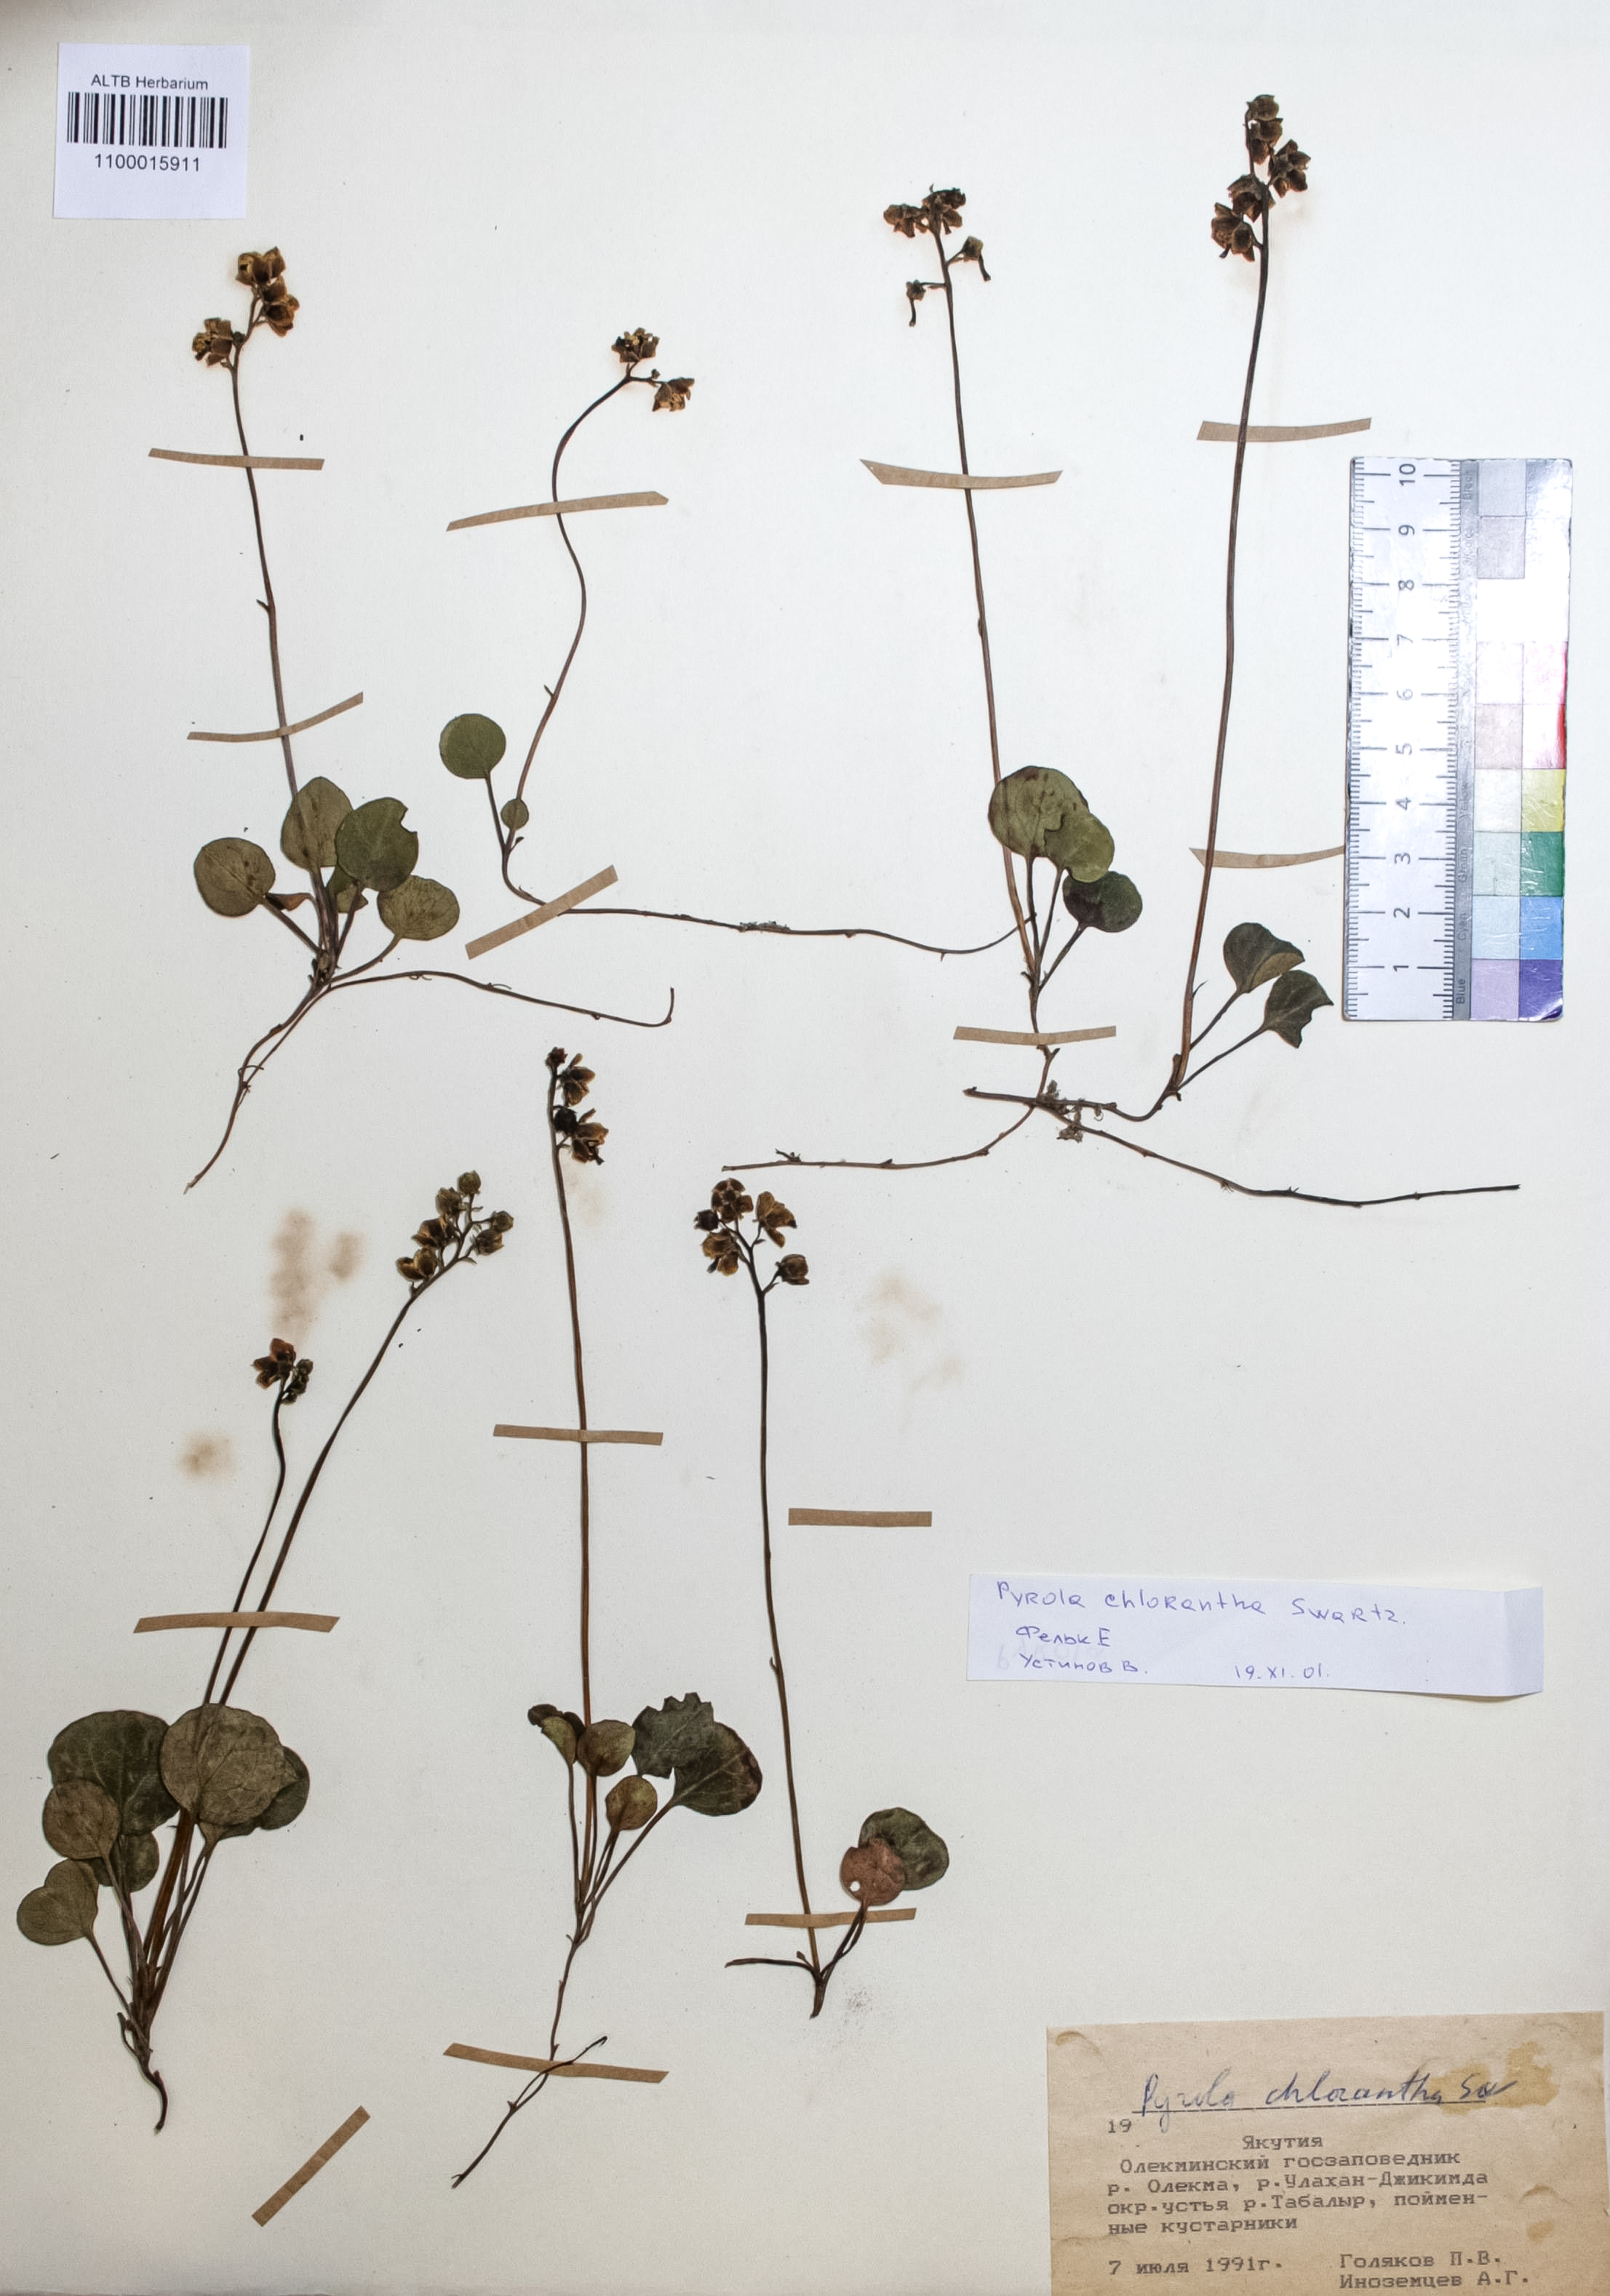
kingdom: Plantae
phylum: Tracheophyta
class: Magnoliopsida
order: Ericales
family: Ericaceae
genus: Pyrola
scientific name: Pyrola chlorantha
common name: Green wintergreen
